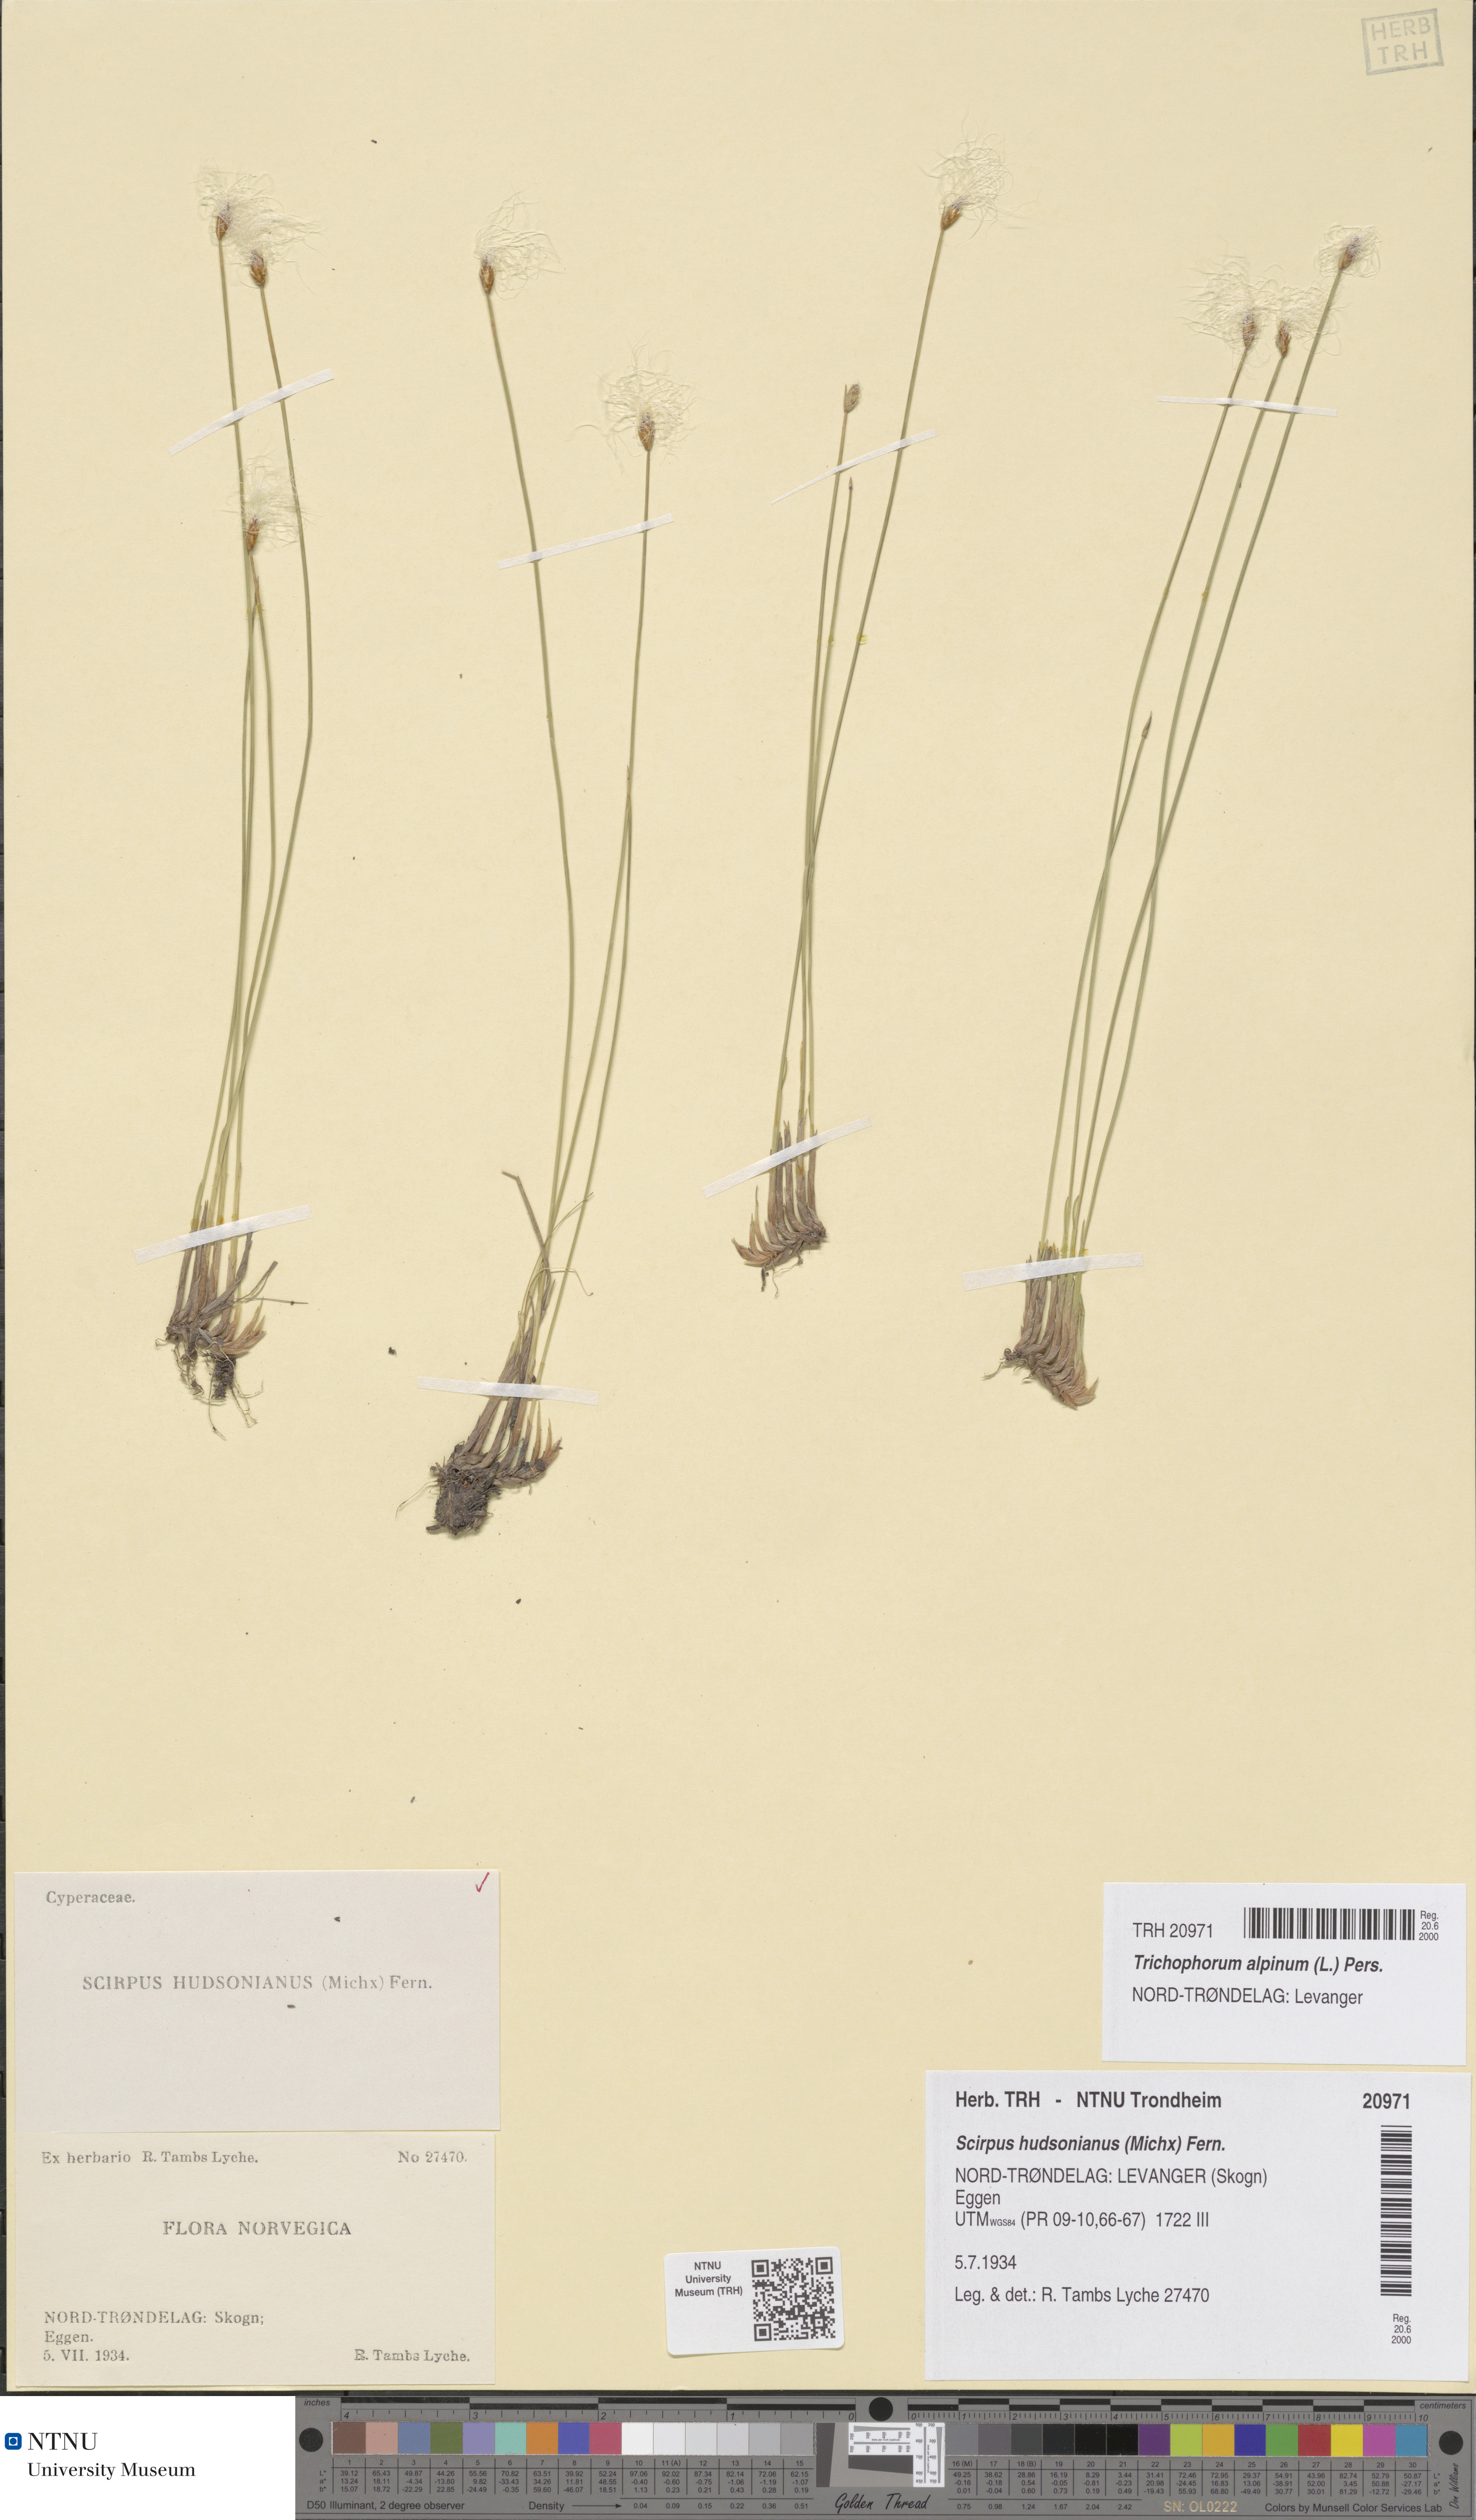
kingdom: Plantae
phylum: Tracheophyta
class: Liliopsida
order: Poales
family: Cyperaceae
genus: Trichophorum
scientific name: Trichophorum alpinum
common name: Alpine bulrush
